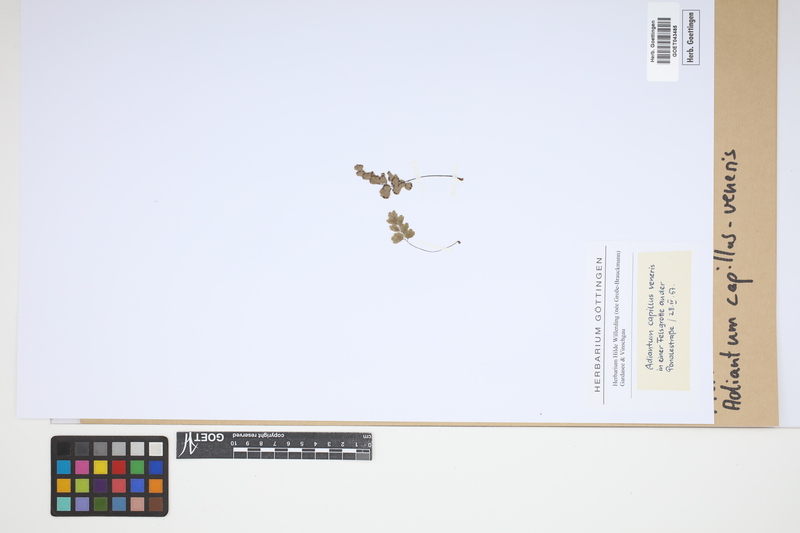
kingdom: Plantae
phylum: Tracheophyta
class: Polypodiopsida
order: Polypodiales
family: Pteridaceae
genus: Adiantum
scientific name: Adiantum capillus-veneris
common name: Maidenhair fern
